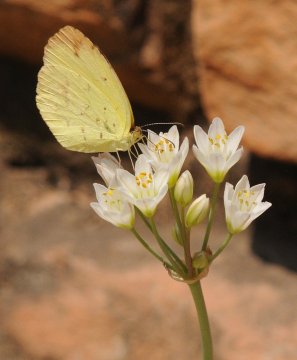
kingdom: Animalia
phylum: Arthropoda
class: Insecta
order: Lepidoptera
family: Pieridae
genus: Eurema
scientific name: Eurema desjardinsii
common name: Angled Grass Yellow
